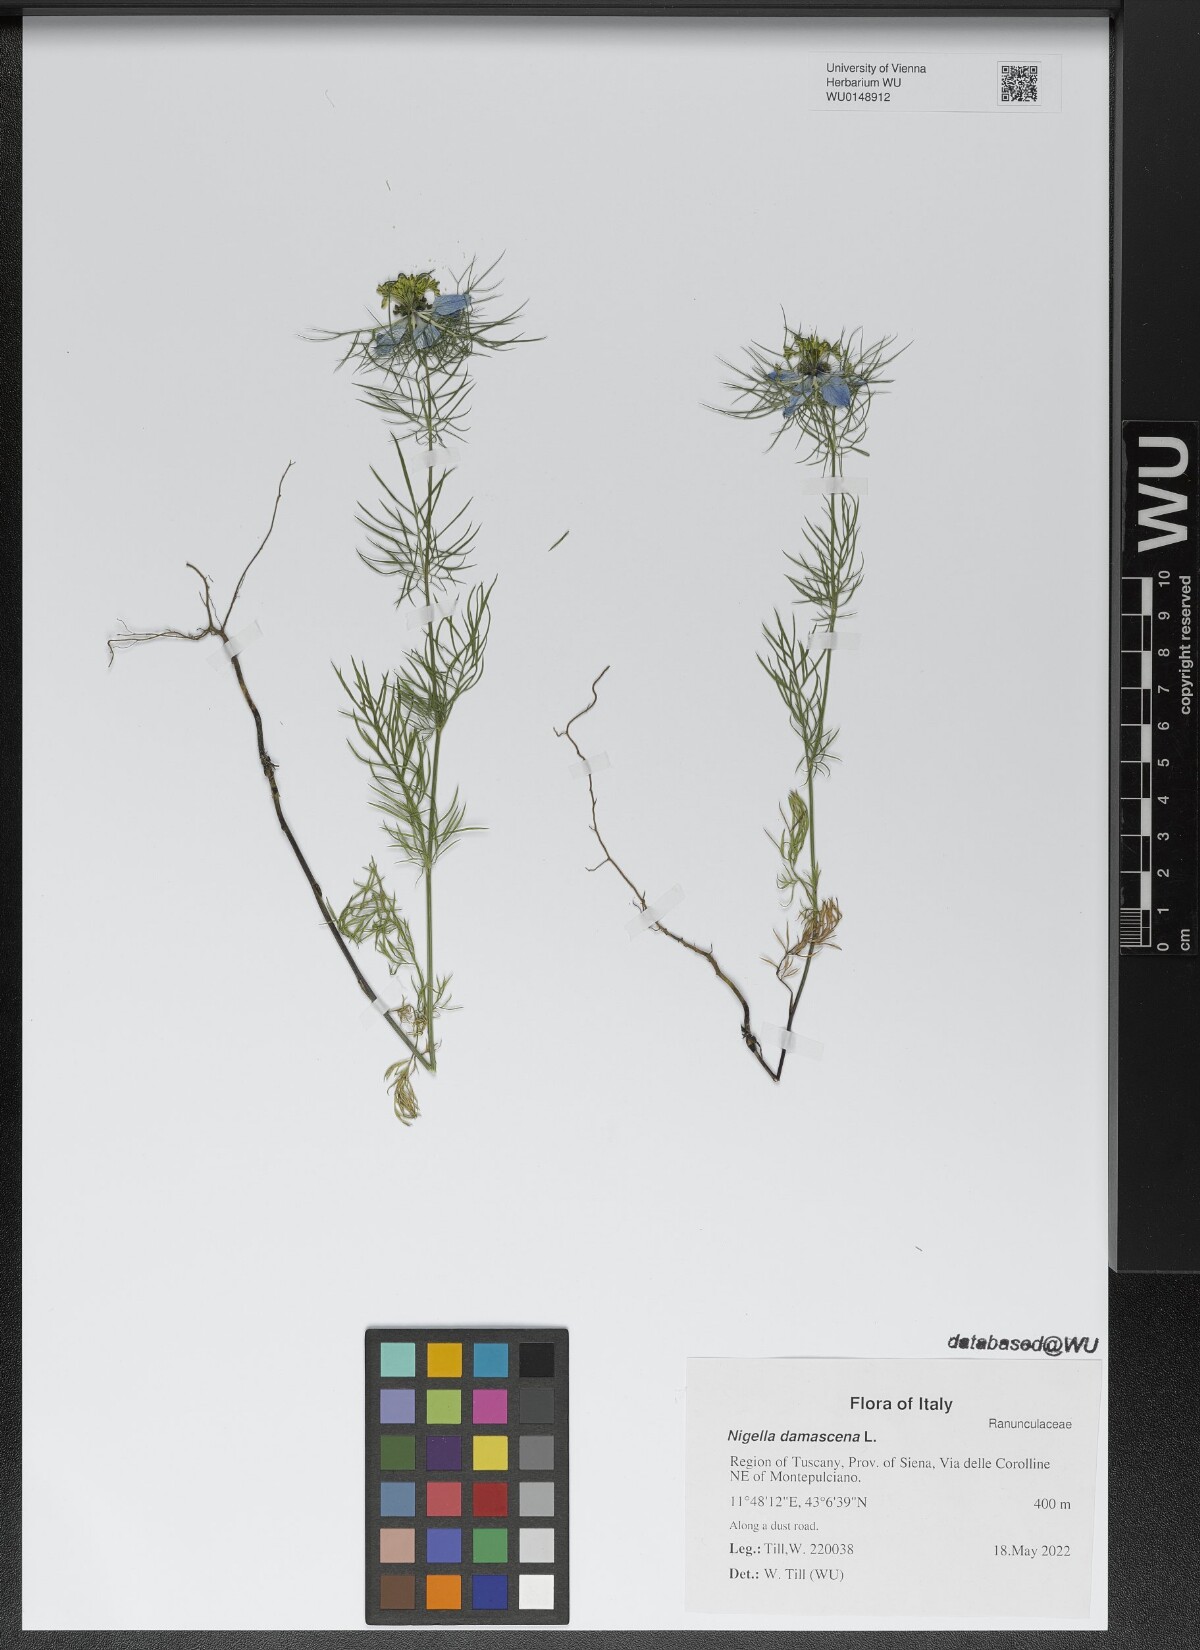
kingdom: Plantae
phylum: Tracheophyta
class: Magnoliopsida
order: Ranunculales
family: Ranunculaceae
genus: Nigella
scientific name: Nigella damascena
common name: Love-in-a-mist
